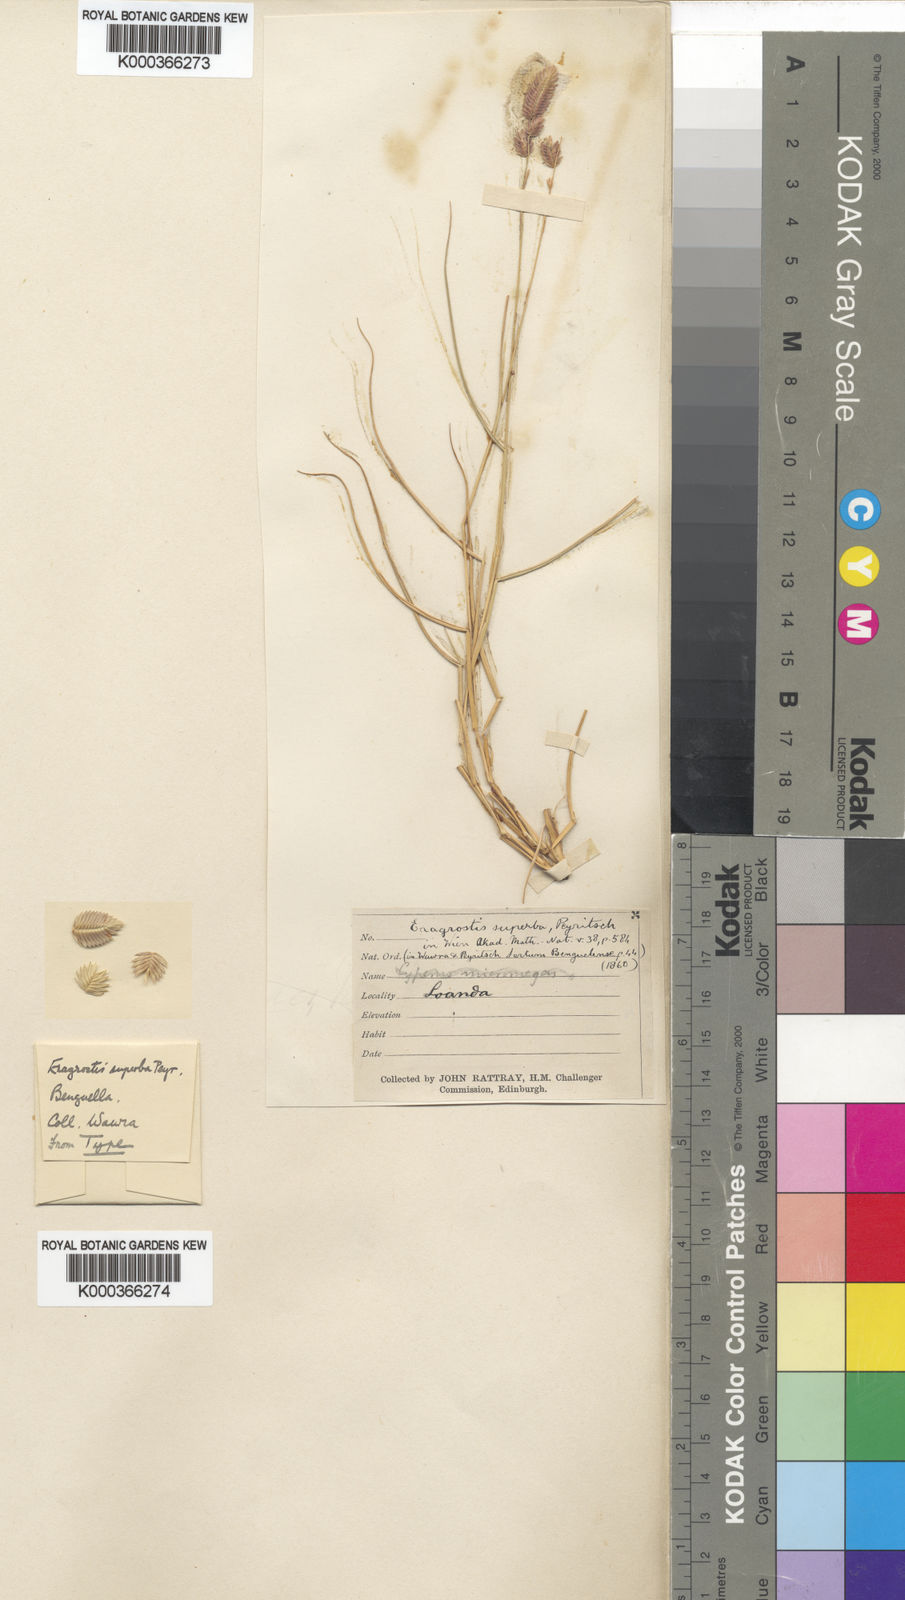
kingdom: Plantae
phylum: Tracheophyta
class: Liliopsida
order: Poales
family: Poaceae
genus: Eragrostis
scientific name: Eragrostis superba
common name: Wilman lovegrass
